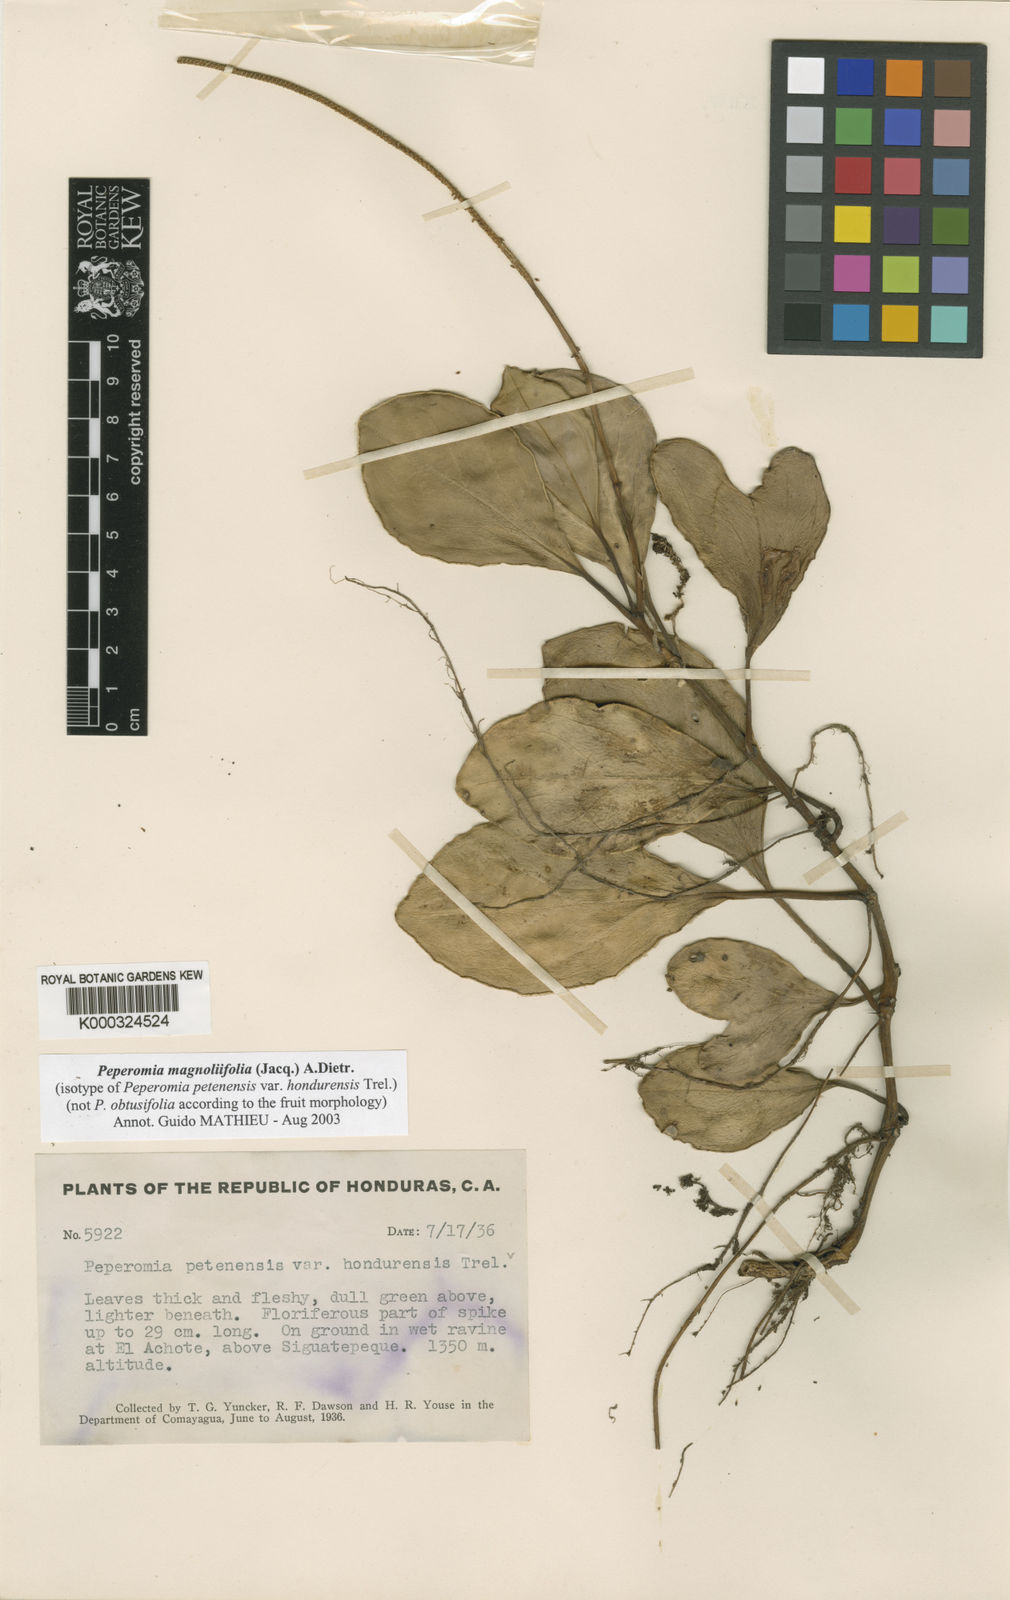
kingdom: Plantae
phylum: Tracheophyta
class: Magnoliopsida
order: Piperales
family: Piperaceae
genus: Peperomia
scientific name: Peperomia
